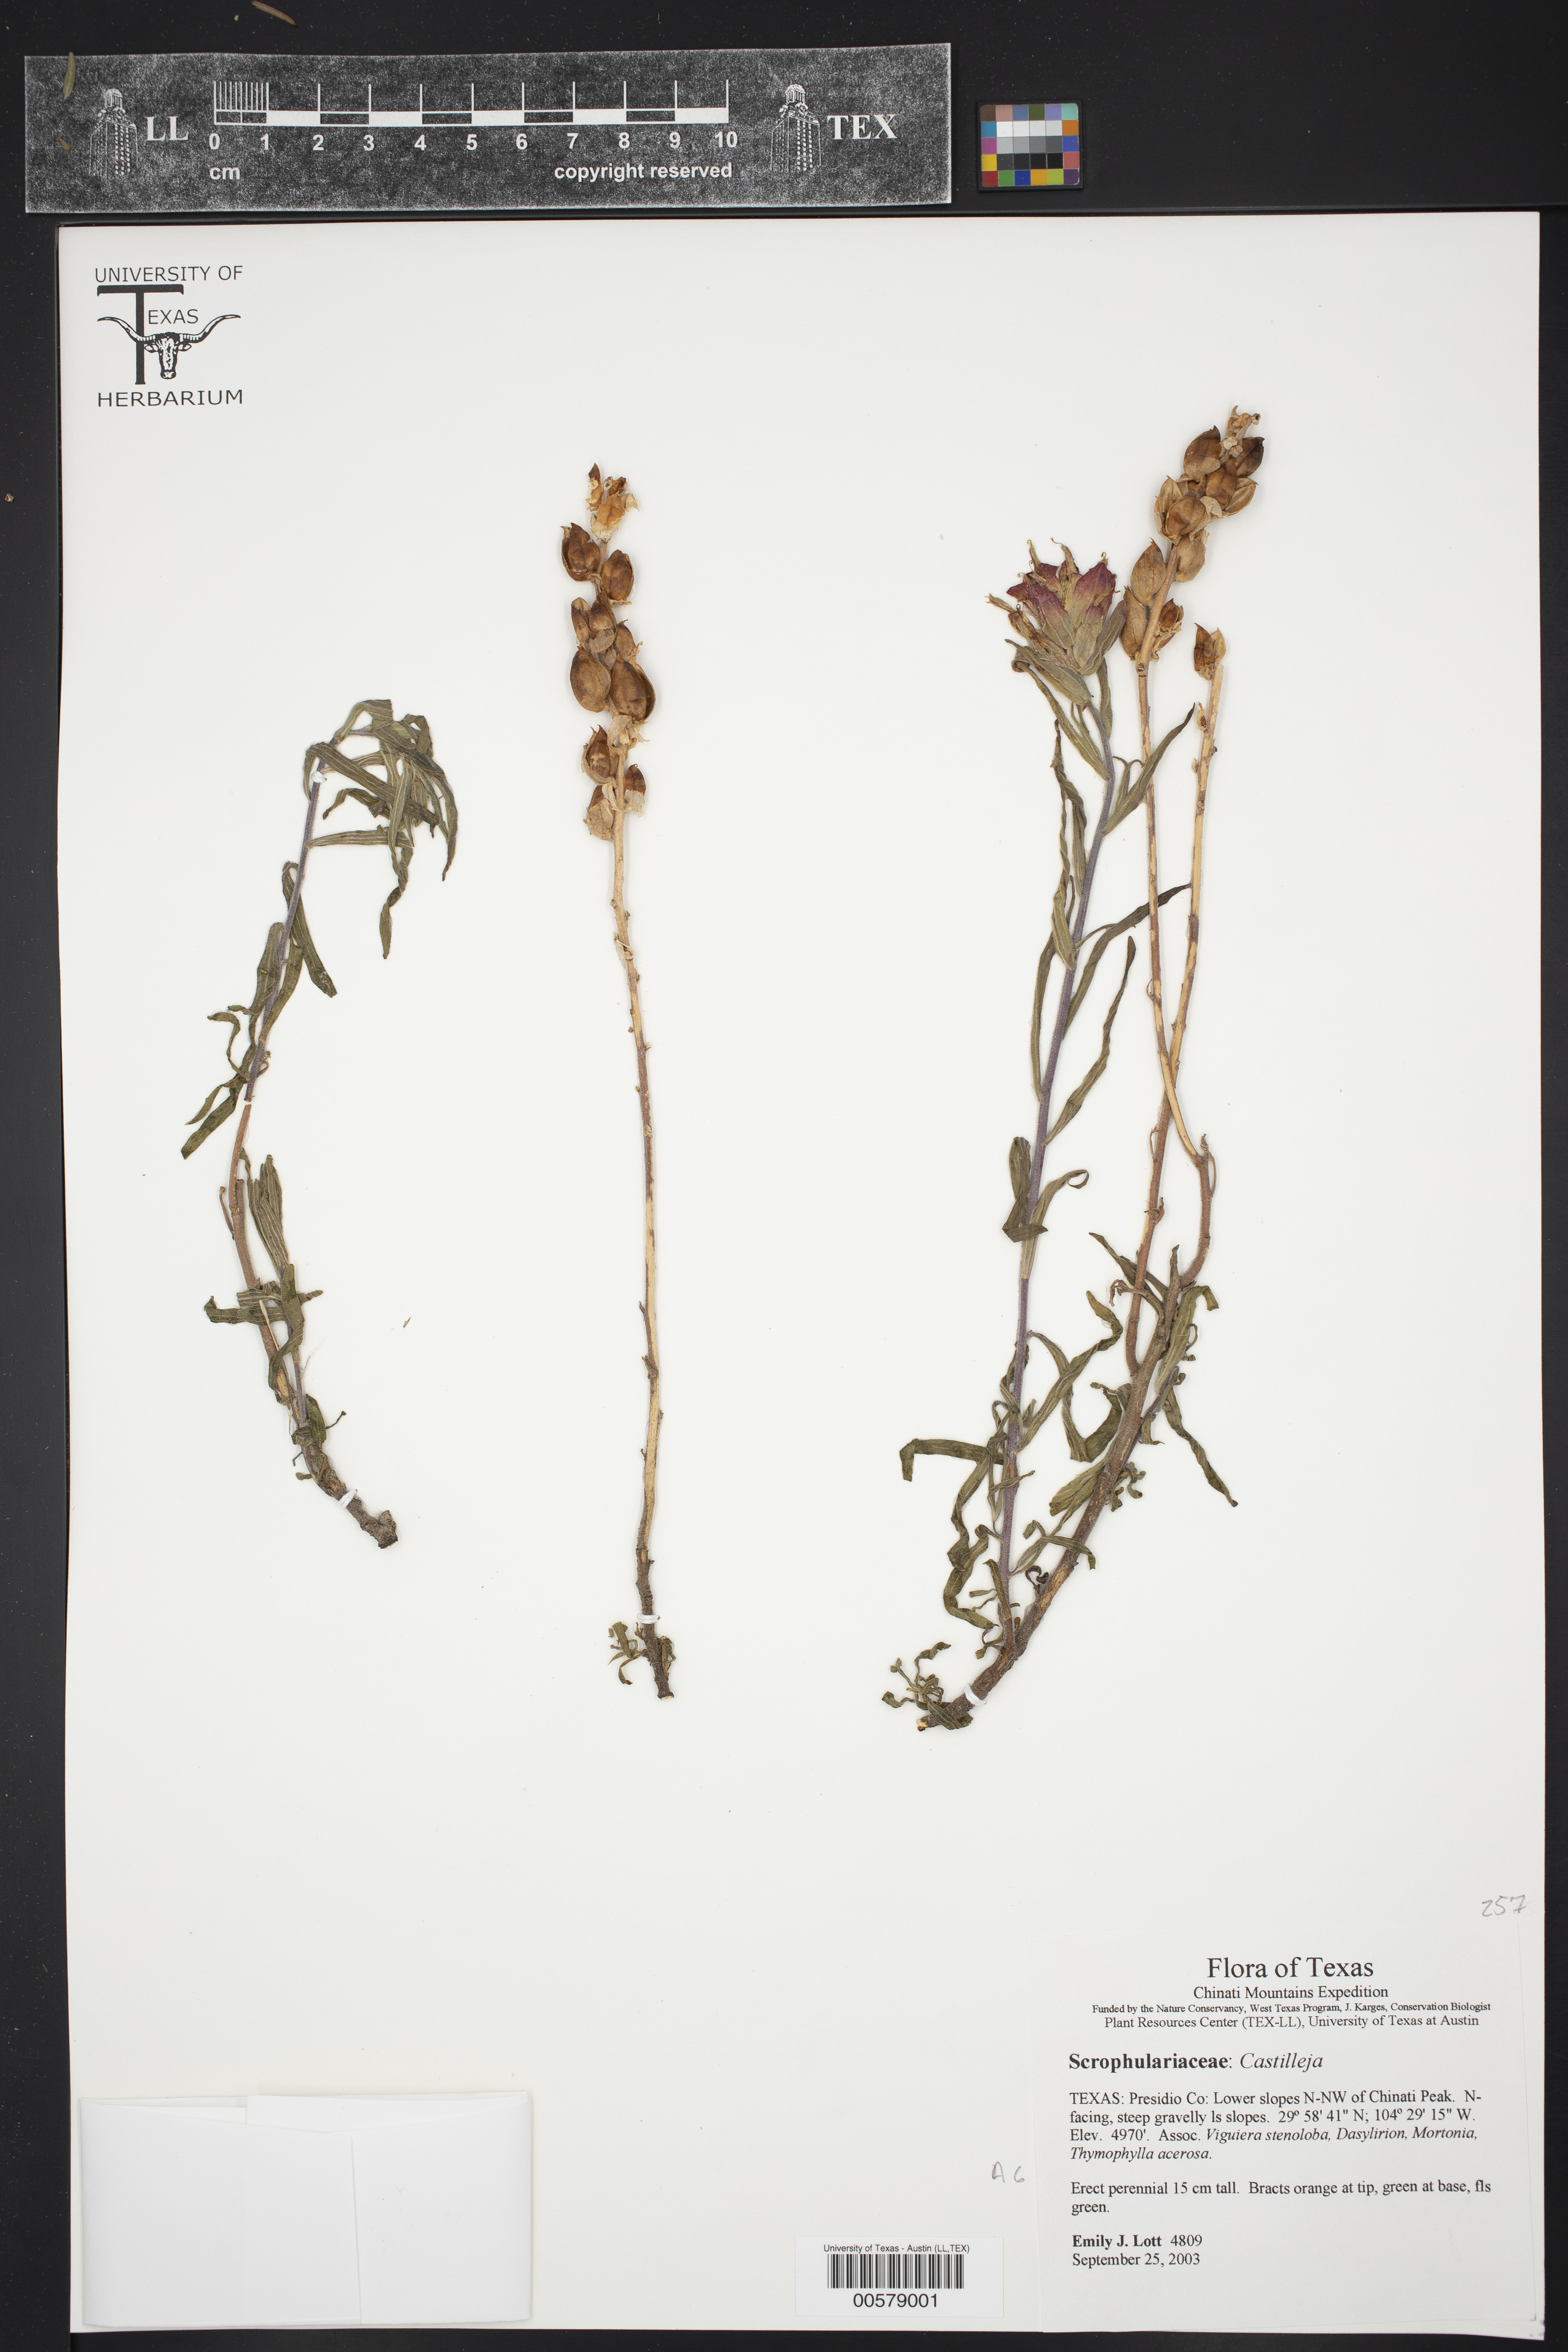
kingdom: Plantae
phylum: Tracheophyta
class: Magnoliopsida
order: Lamiales
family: Orobanchaceae
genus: Castilleja
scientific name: Castilleja
